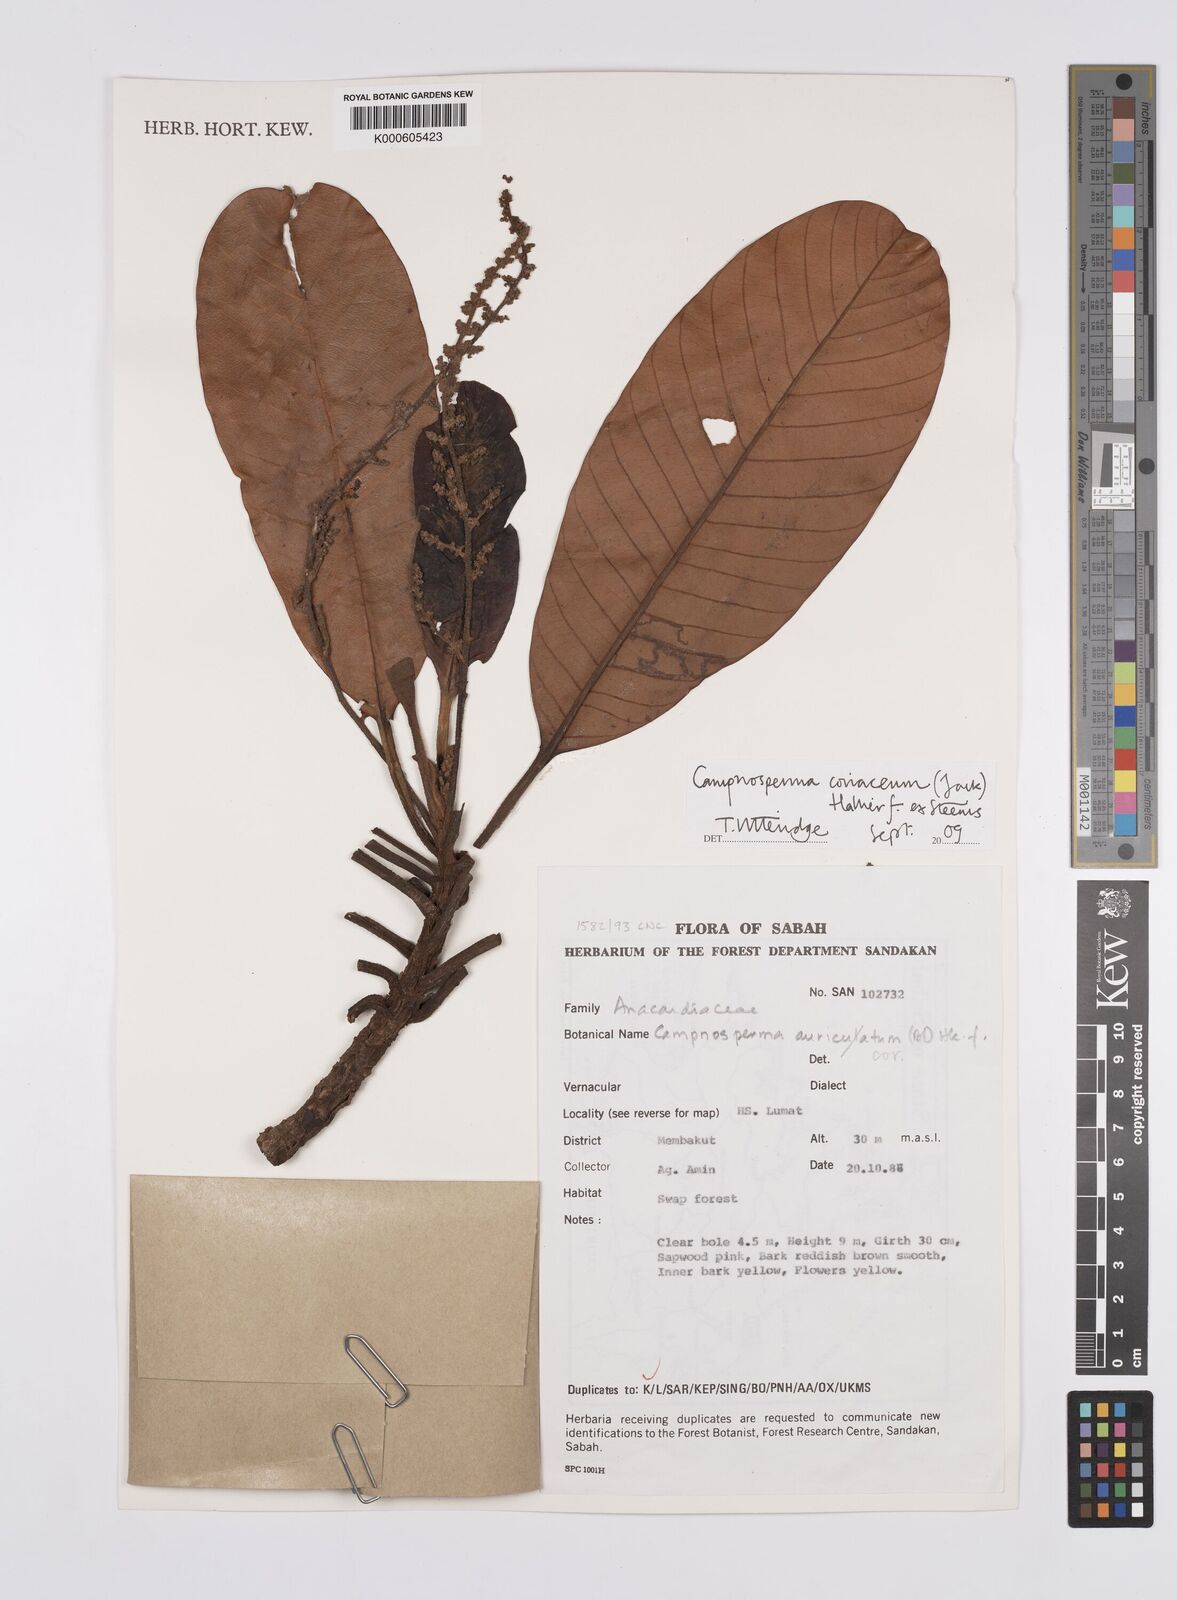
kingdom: Plantae
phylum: Tracheophyta
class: Magnoliopsida
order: Sapindales
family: Anacardiaceae
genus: Campnosperma
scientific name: Campnosperma
